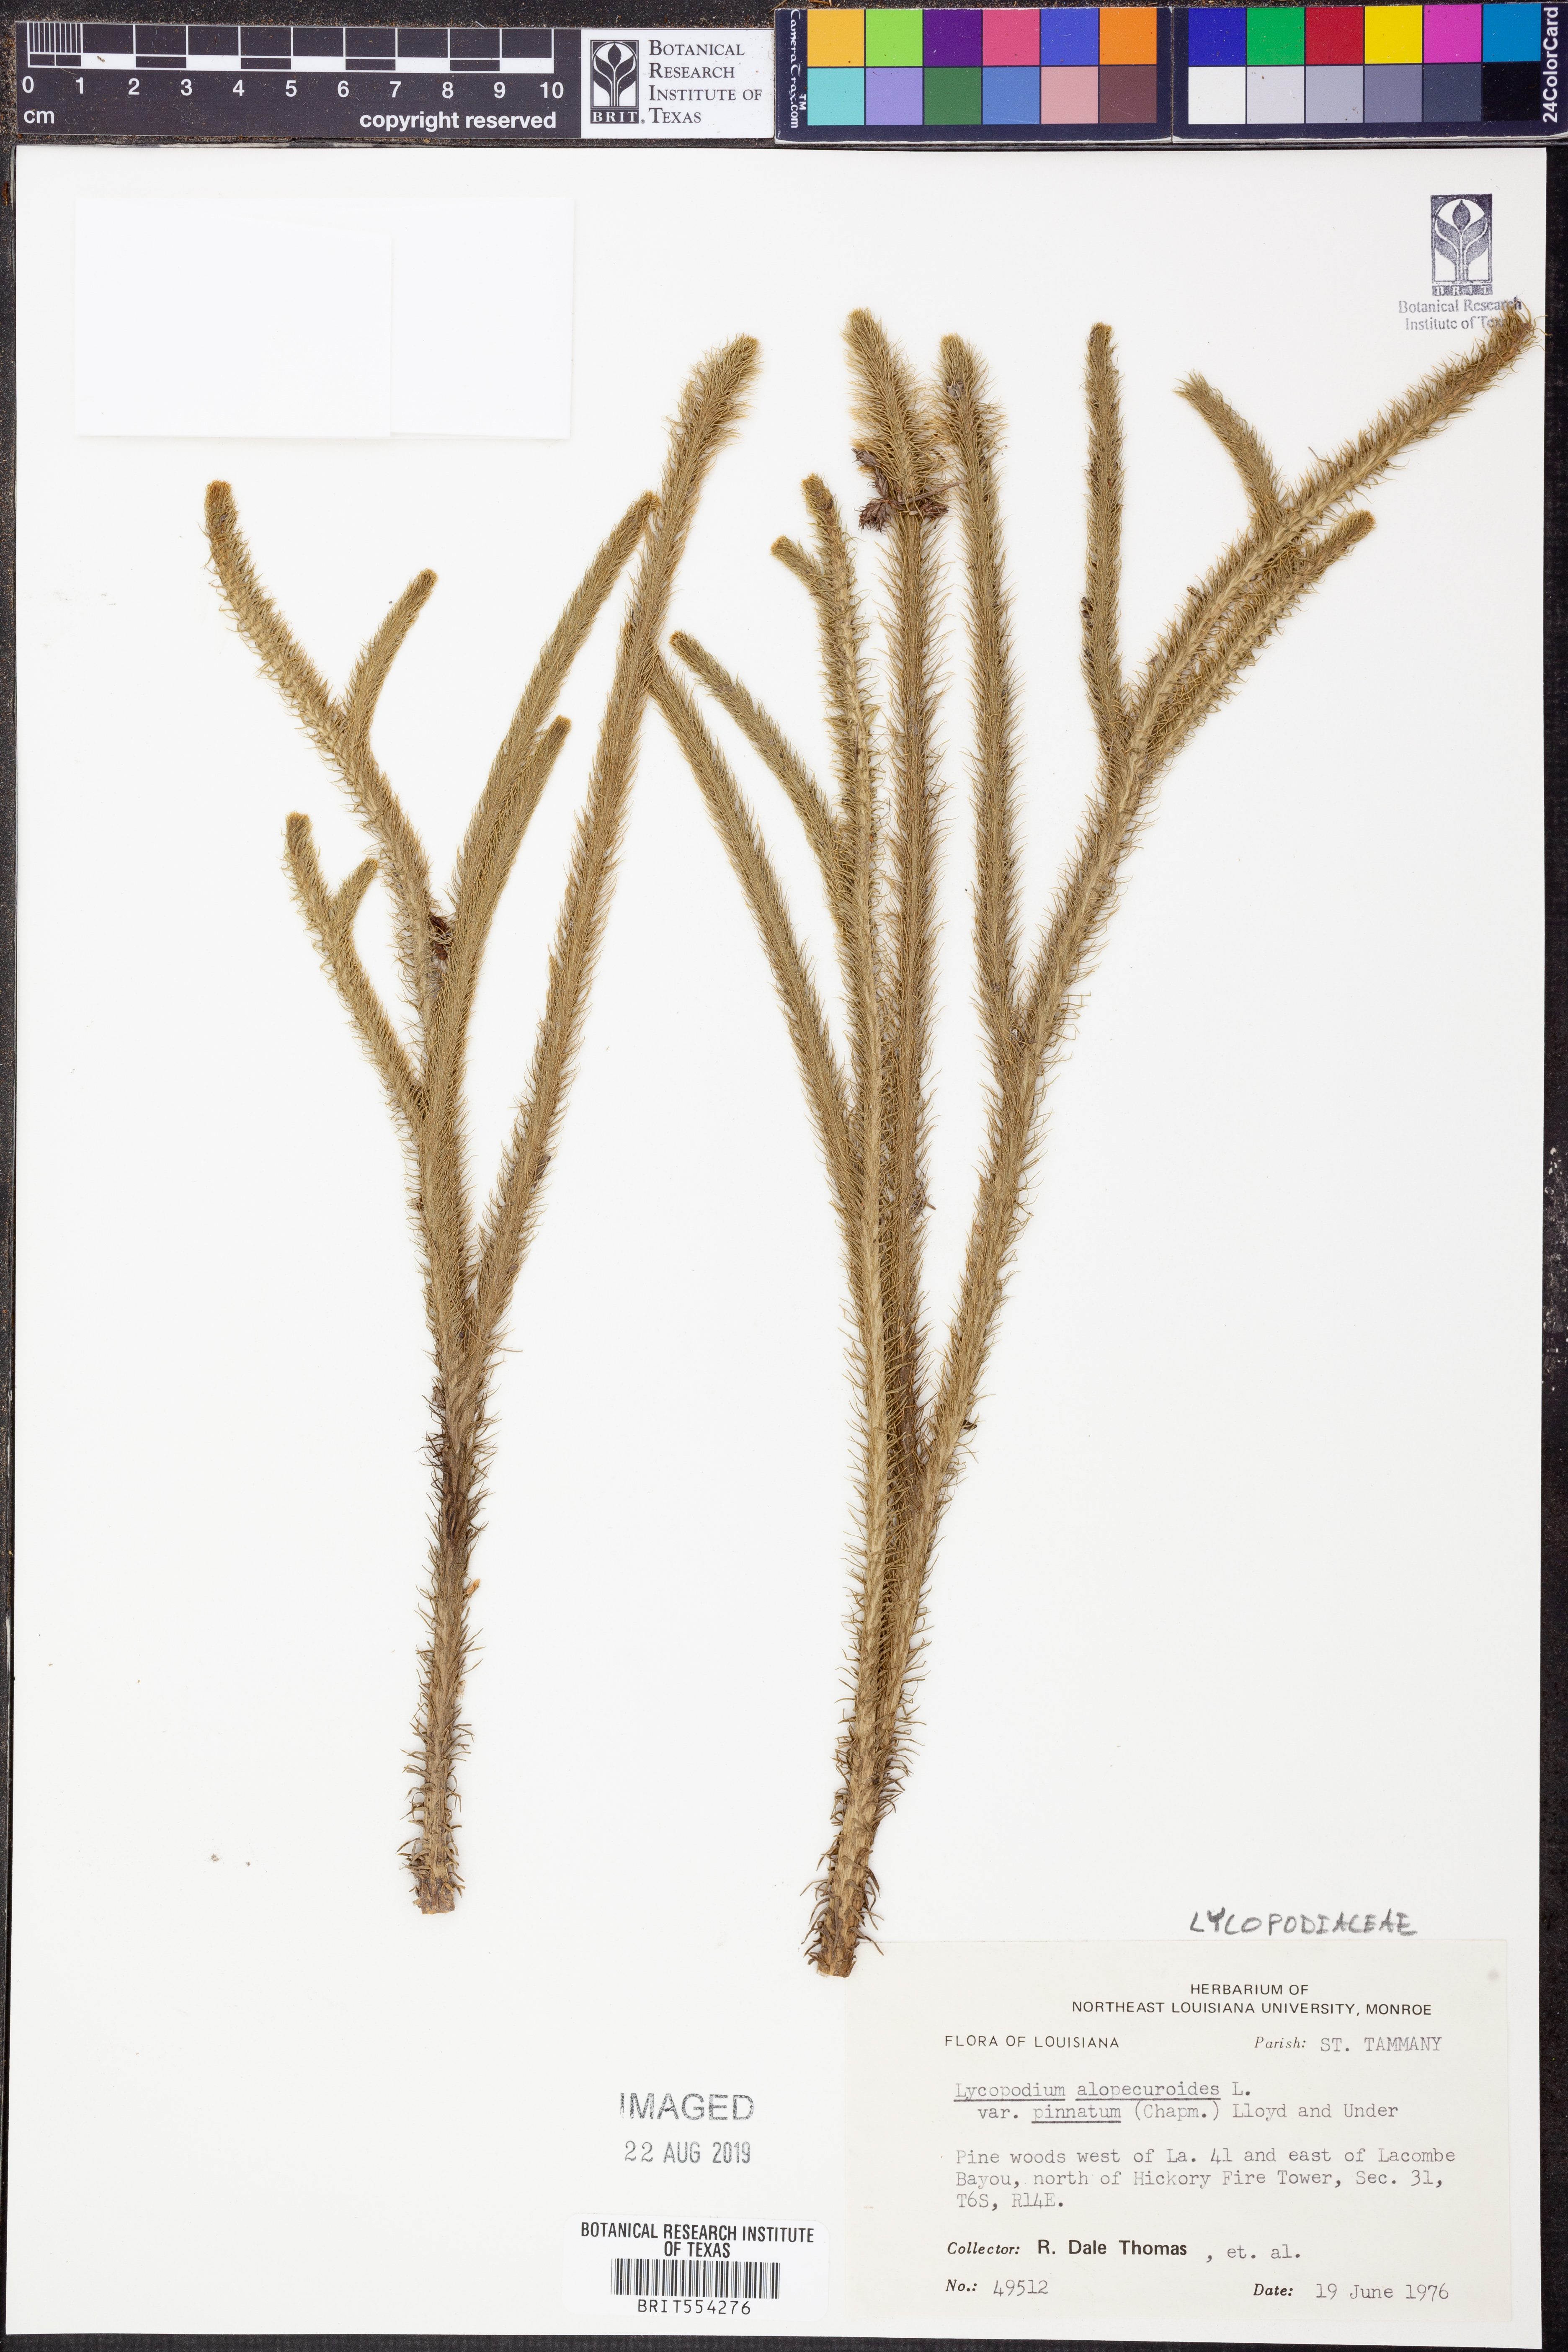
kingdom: Plantae
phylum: Tracheophyta
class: Lycopodiopsida
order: Lycopodiales
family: Lycopodiaceae
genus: Lycopodiella
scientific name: Lycopodiella prostrata
